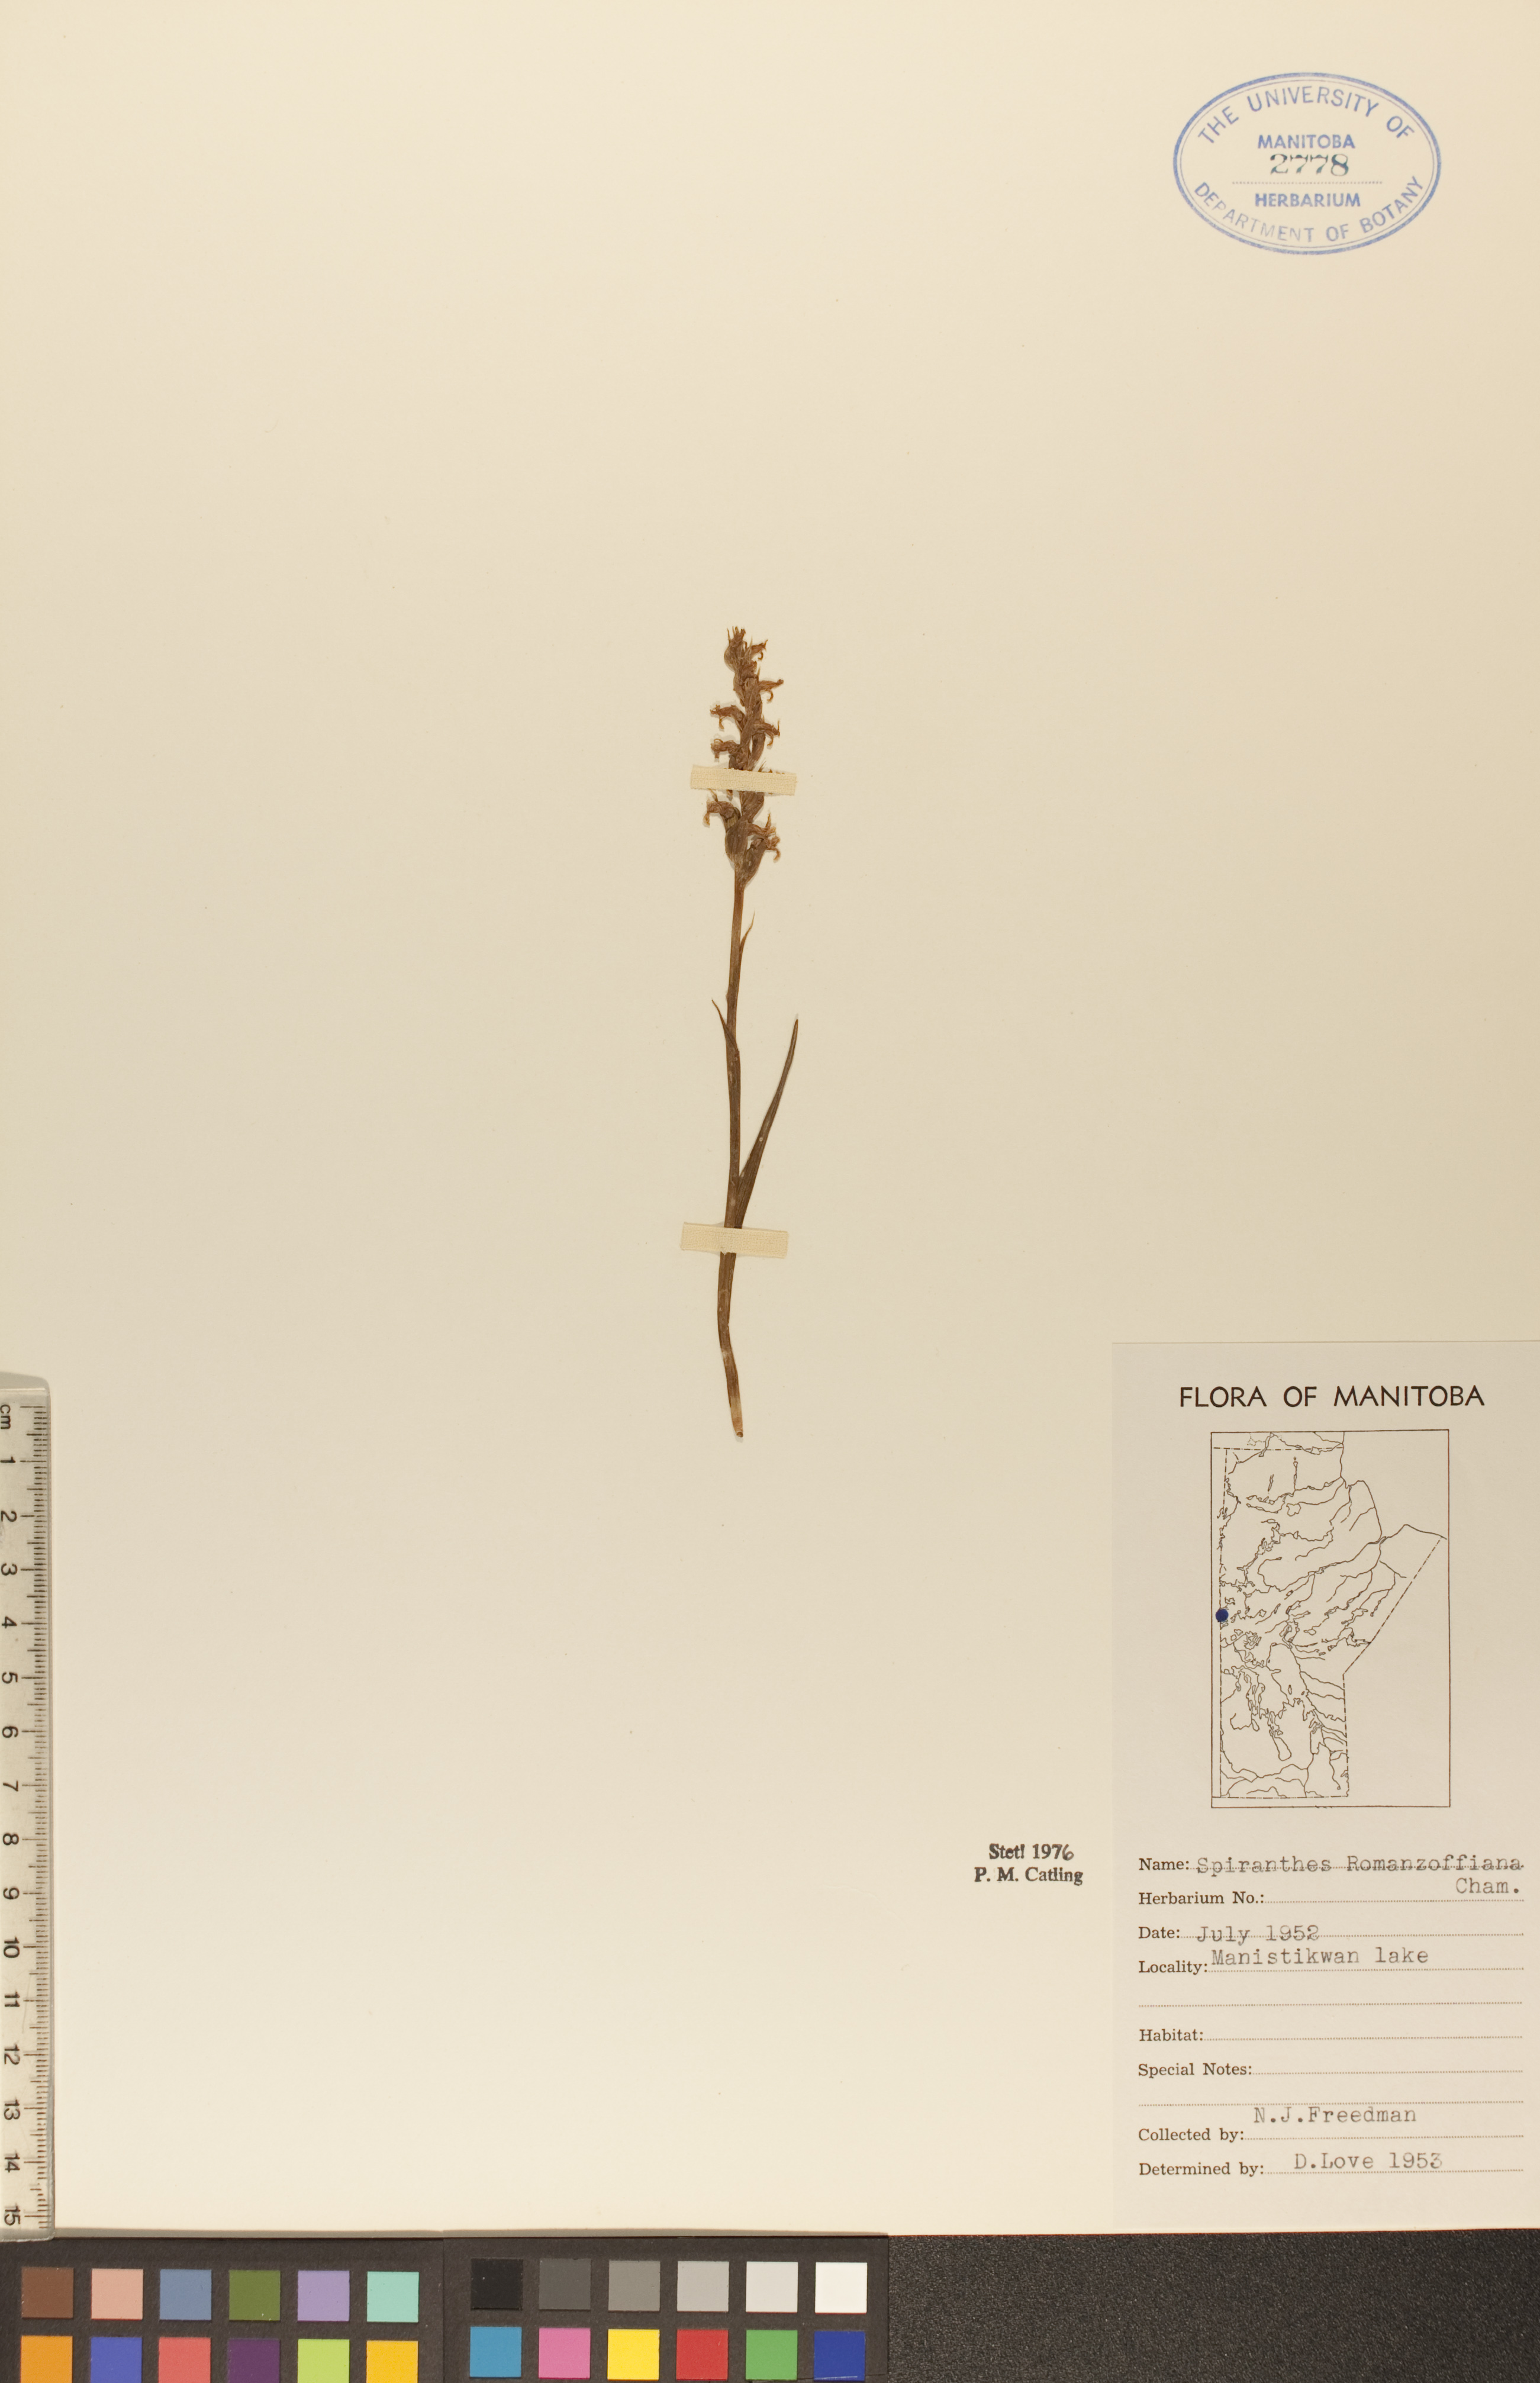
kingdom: Plantae
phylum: Tracheophyta
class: Liliopsida
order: Asparagales
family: Orchidaceae
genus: Spiranthes
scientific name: Spiranthes romanzoffiana
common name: Irish lady's-tresses
